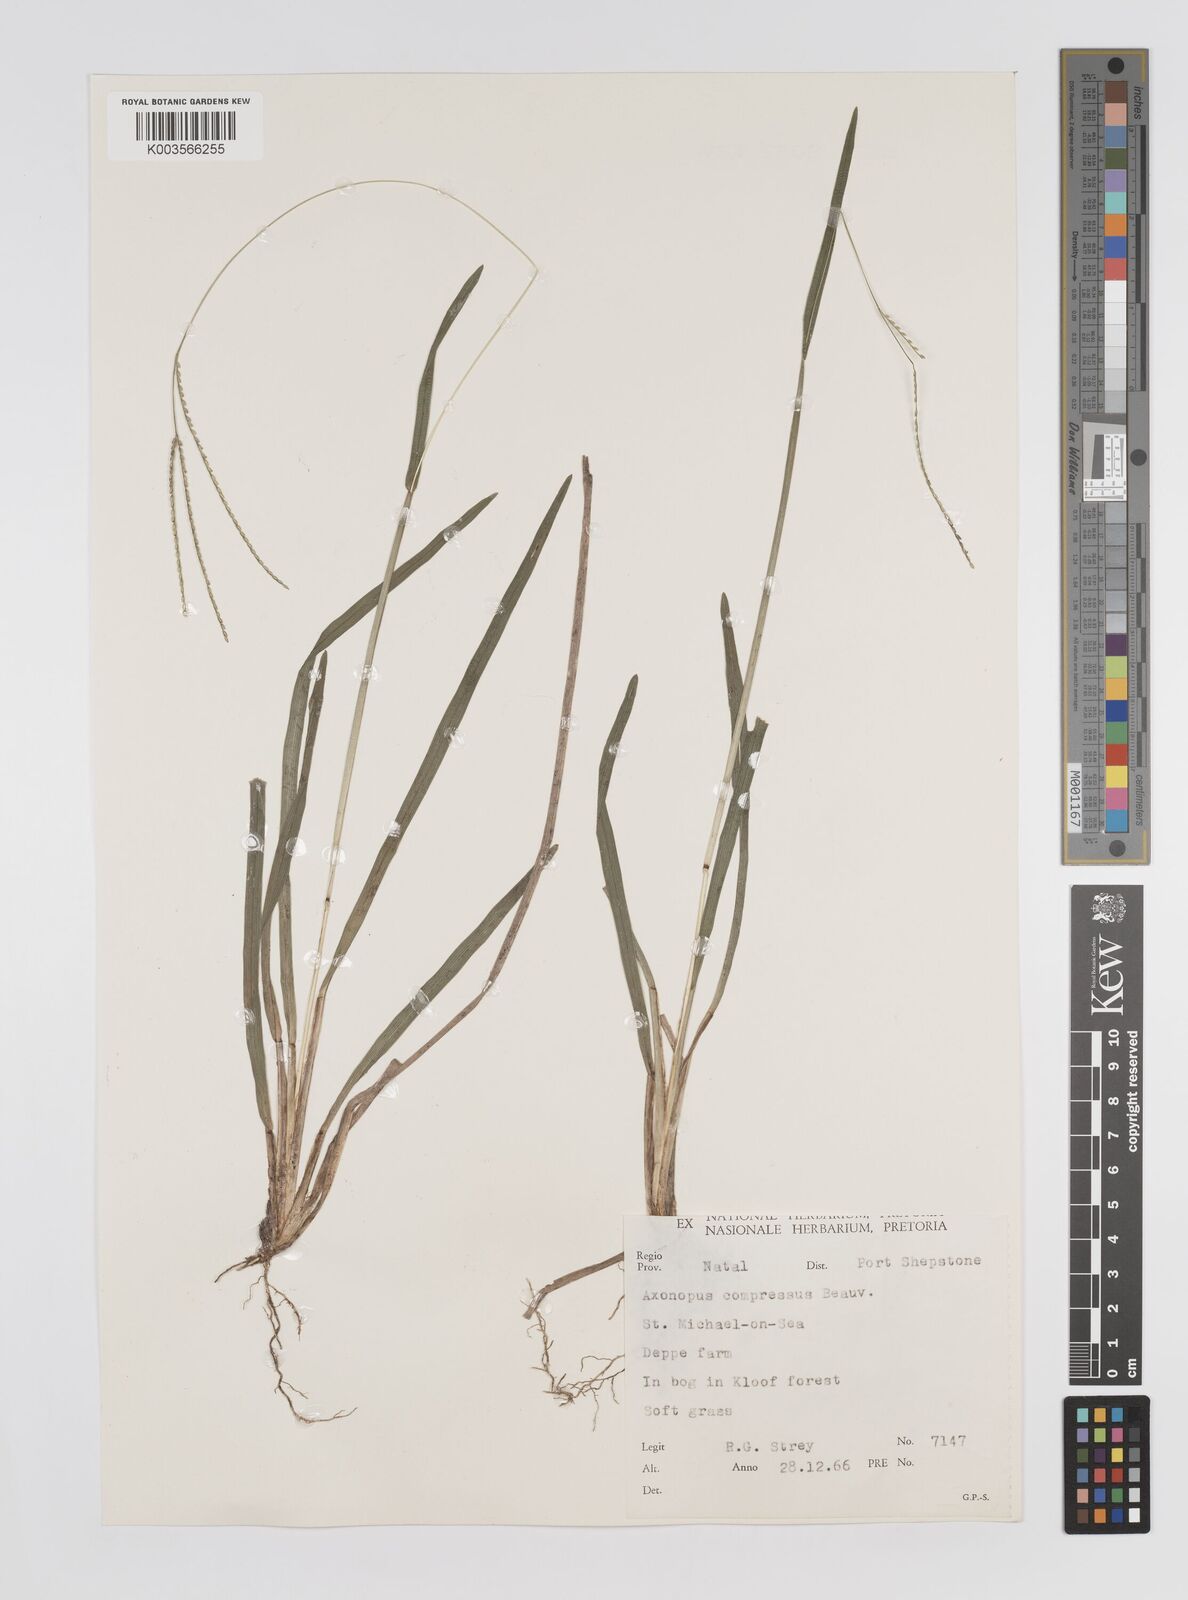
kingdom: Plantae
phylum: Tracheophyta
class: Liliopsida
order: Poales
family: Poaceae
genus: Axonopus
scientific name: Axonopus fissifolius
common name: Common carpetgrass
